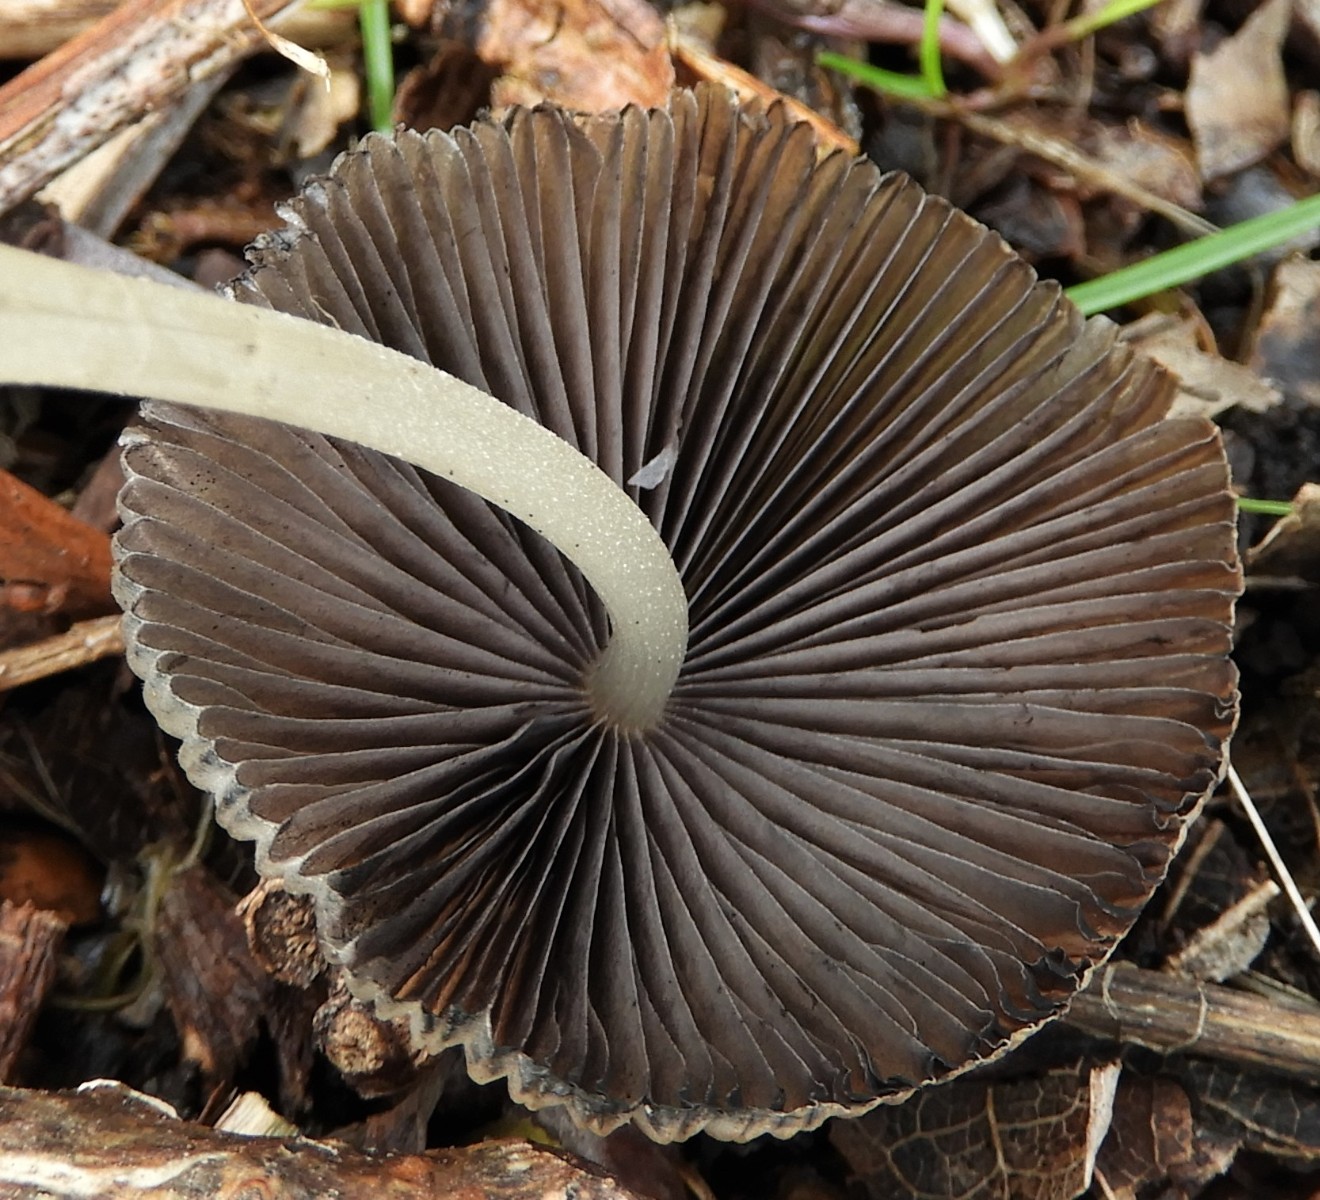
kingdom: Fungi
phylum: Basidiomycota
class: Agaricomycetes
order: Agaricales
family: Psathyrellaceae
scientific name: Psathyrellaceae
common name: mørkhatfamilien
